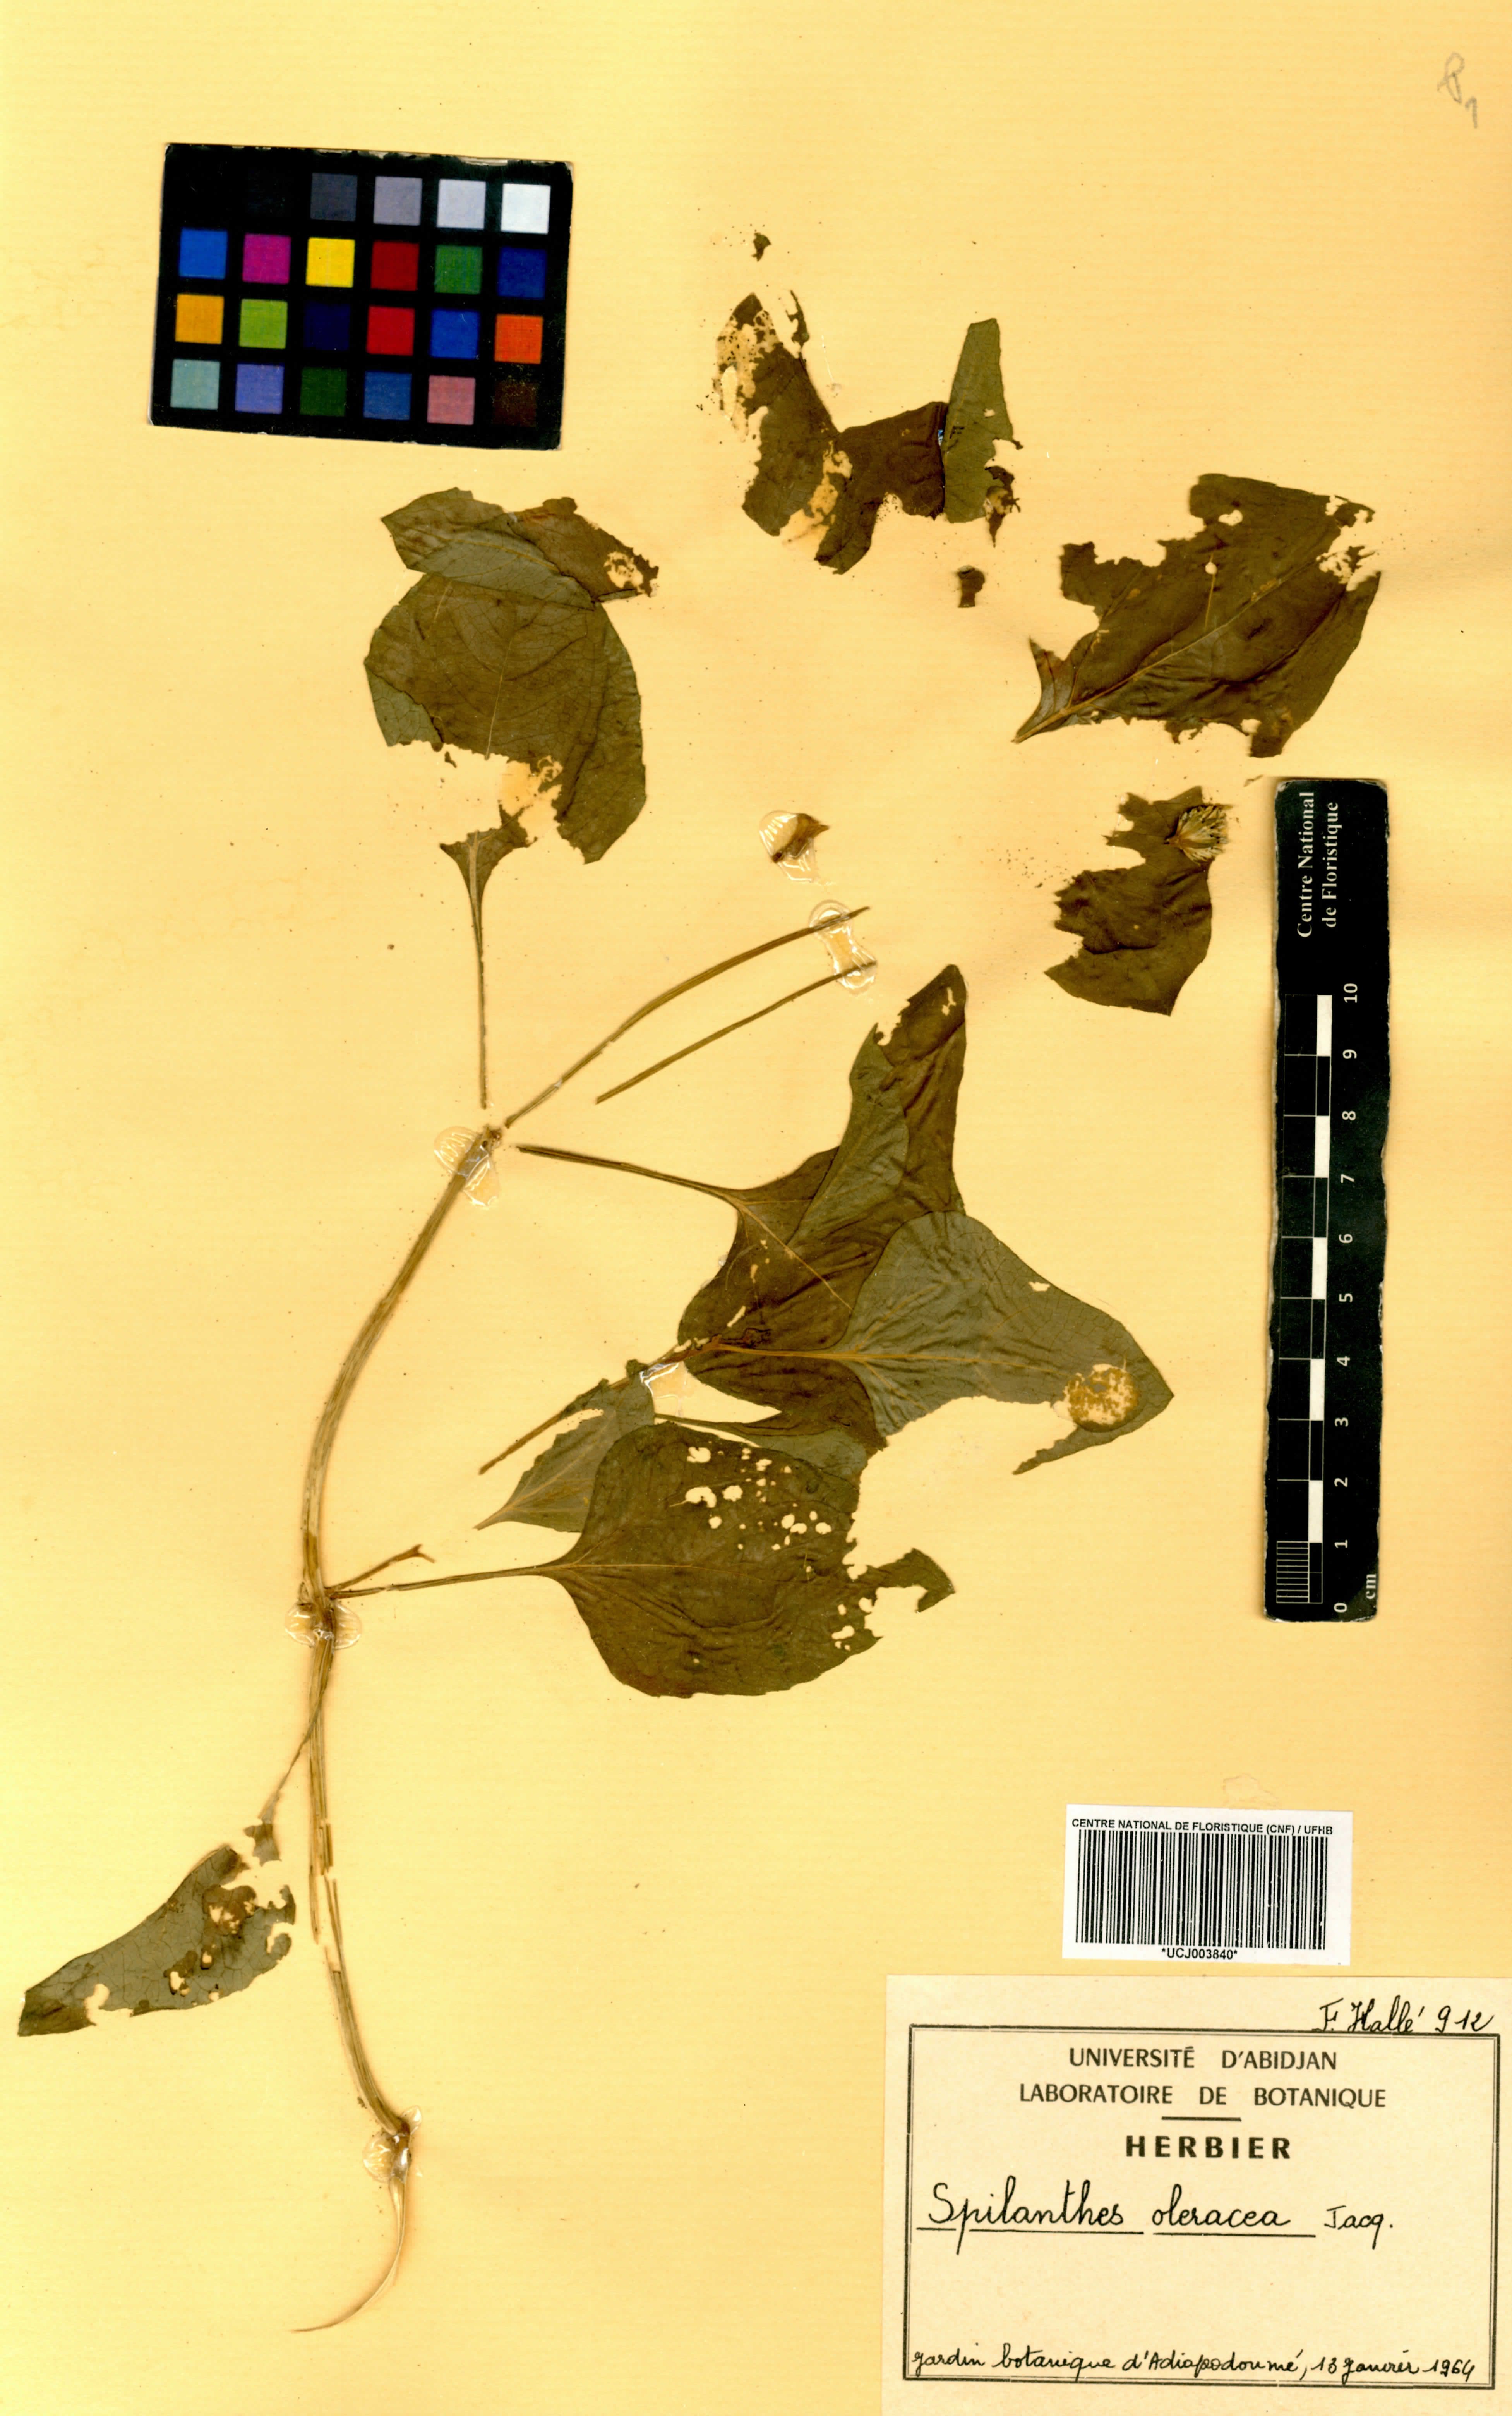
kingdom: Plantae
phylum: Tracheophyta
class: Magnoliopsida
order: Asterales
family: Asteraceae
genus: Acmella
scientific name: Acmella oleracea
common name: Brazilian cress
